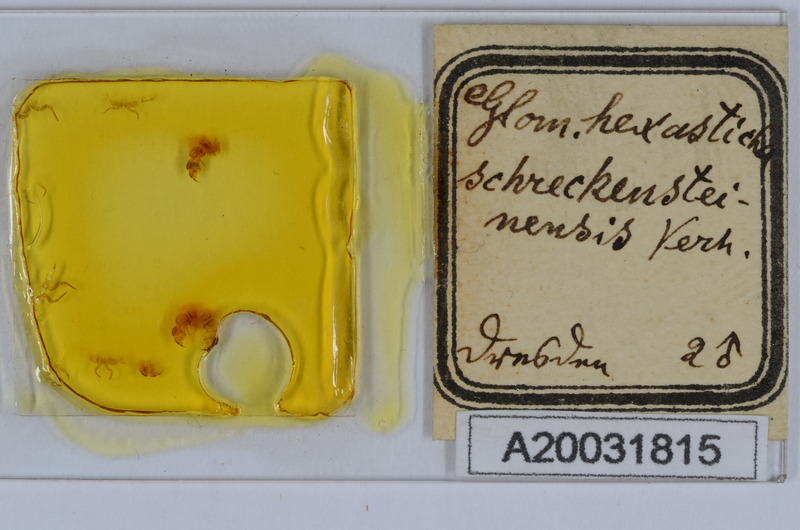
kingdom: Animalia
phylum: Arthropoda
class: Diplopoda
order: Glomerida
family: Glomeridae
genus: Glomeris
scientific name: Glomeris hexasticha
